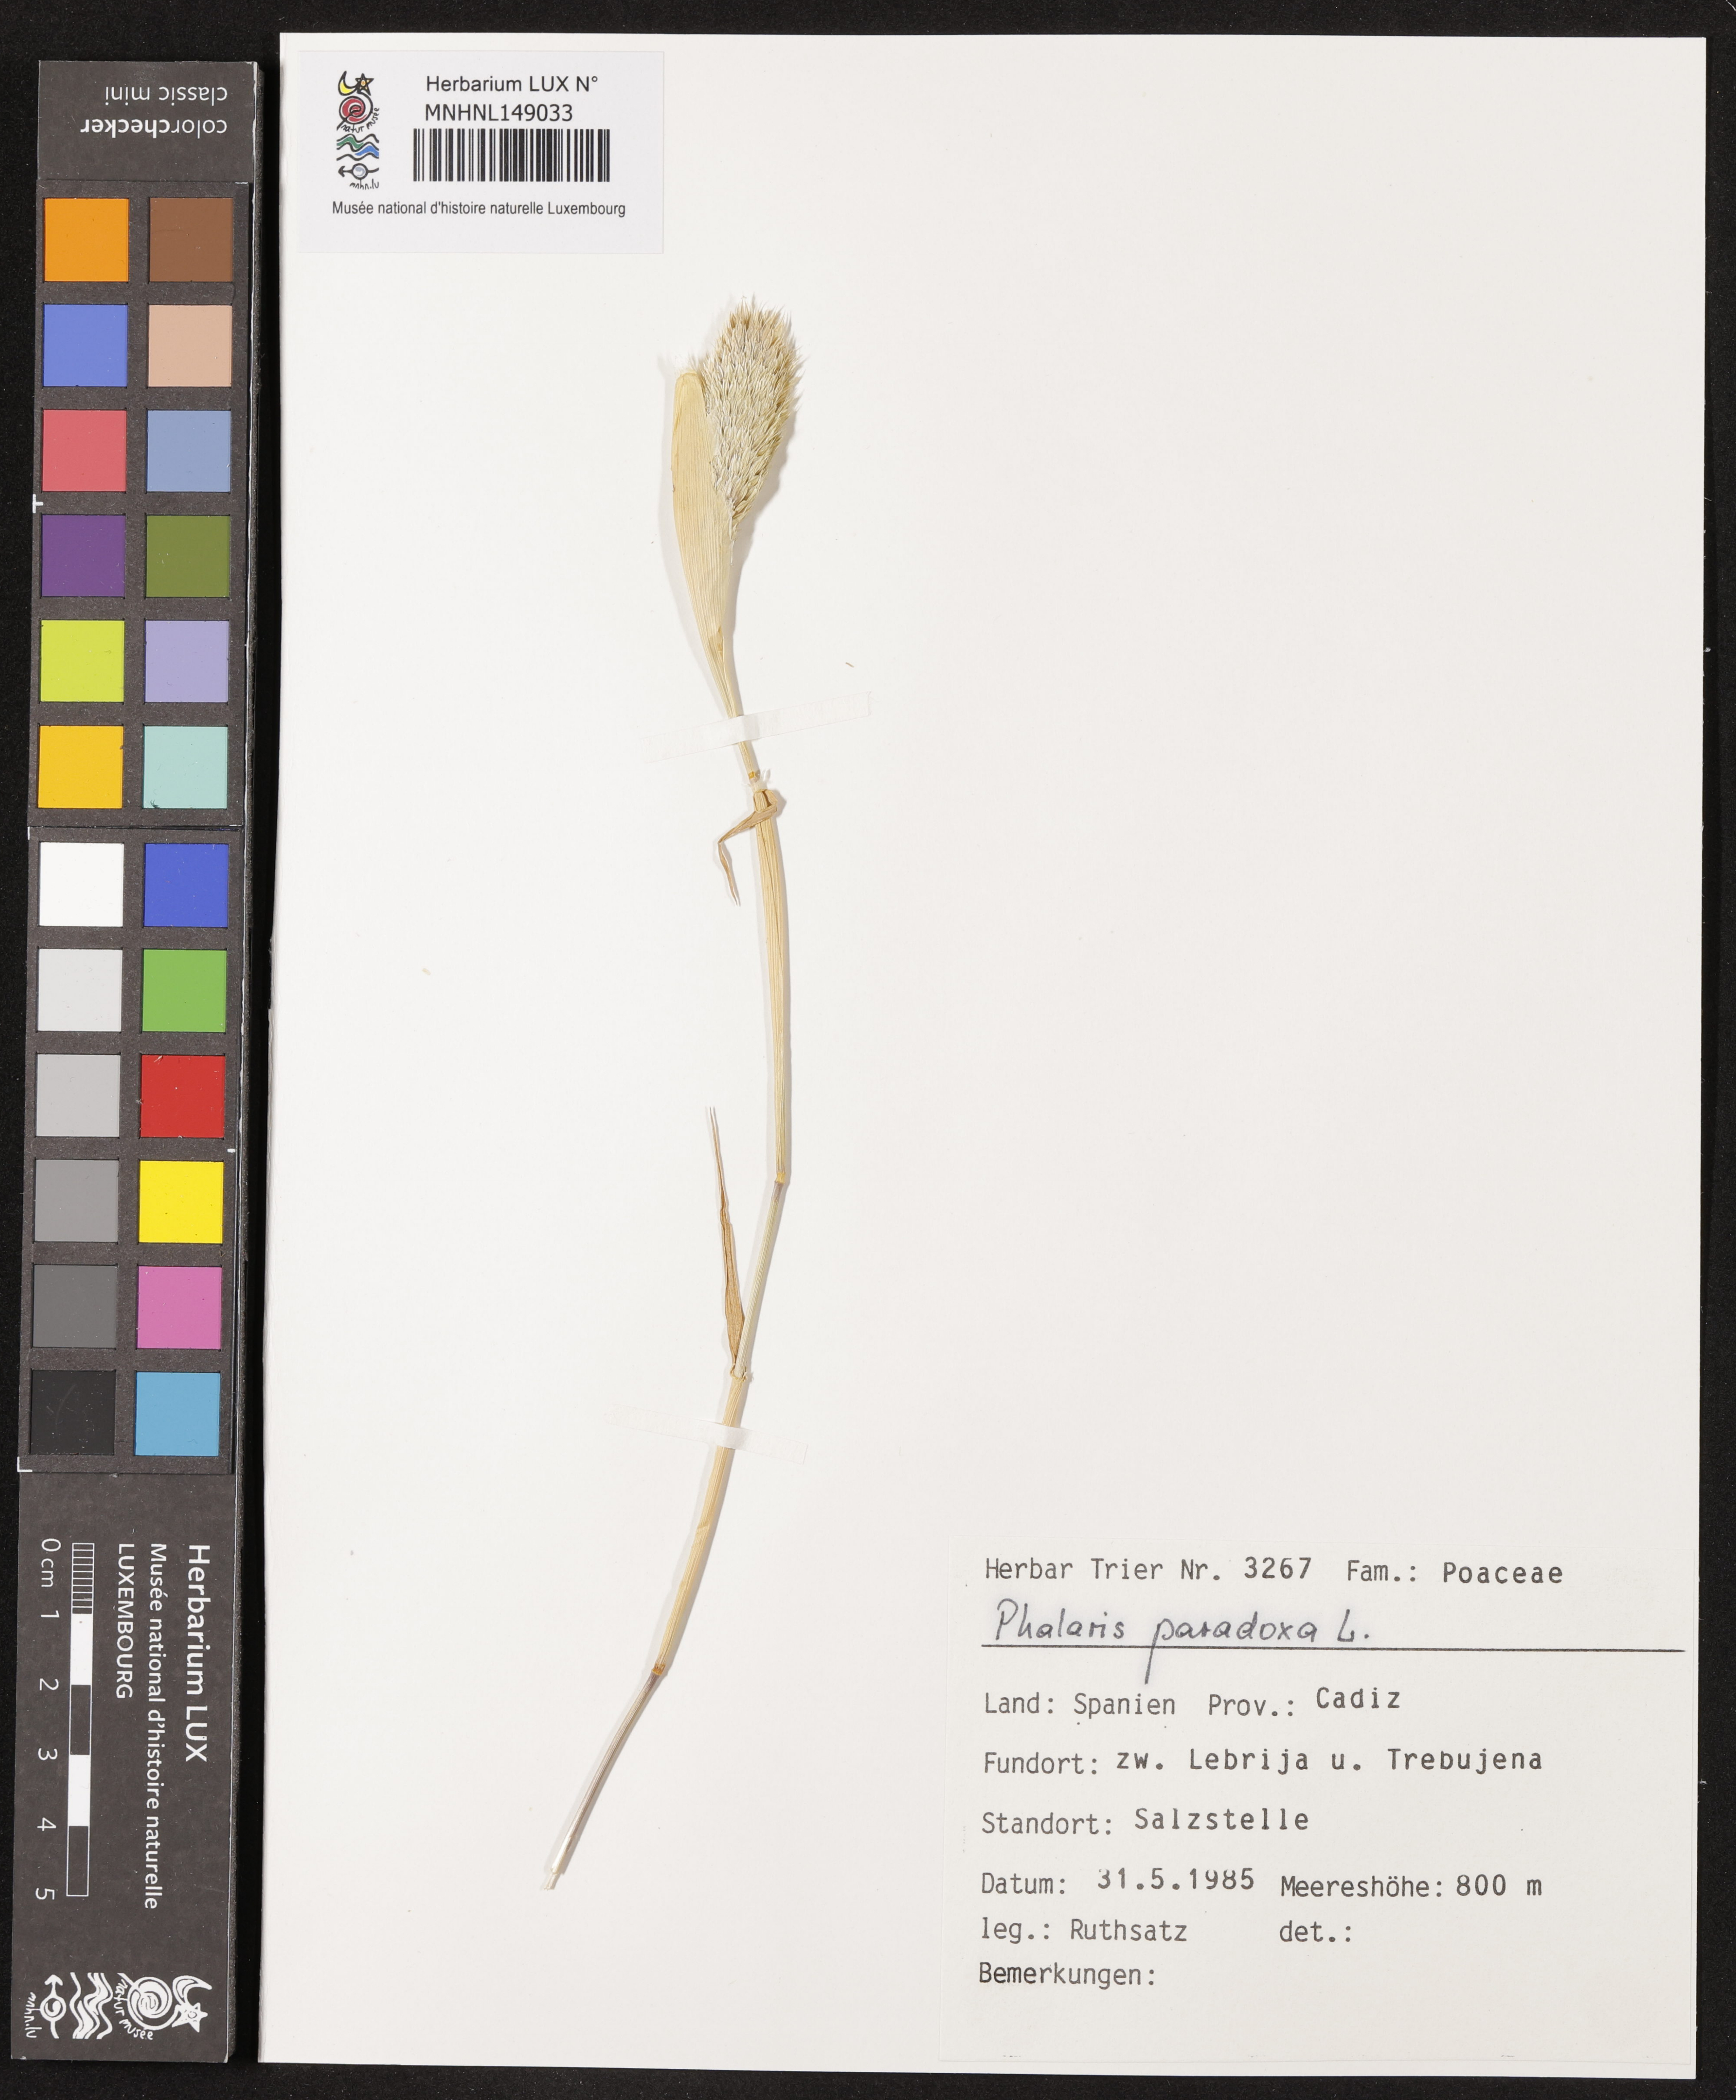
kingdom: Plantae
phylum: Tracheophyta
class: Liliopsida
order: Poales
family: Poaceae
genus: Phalaris
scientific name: Phalaris paradoxa
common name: Awned canary-grass
